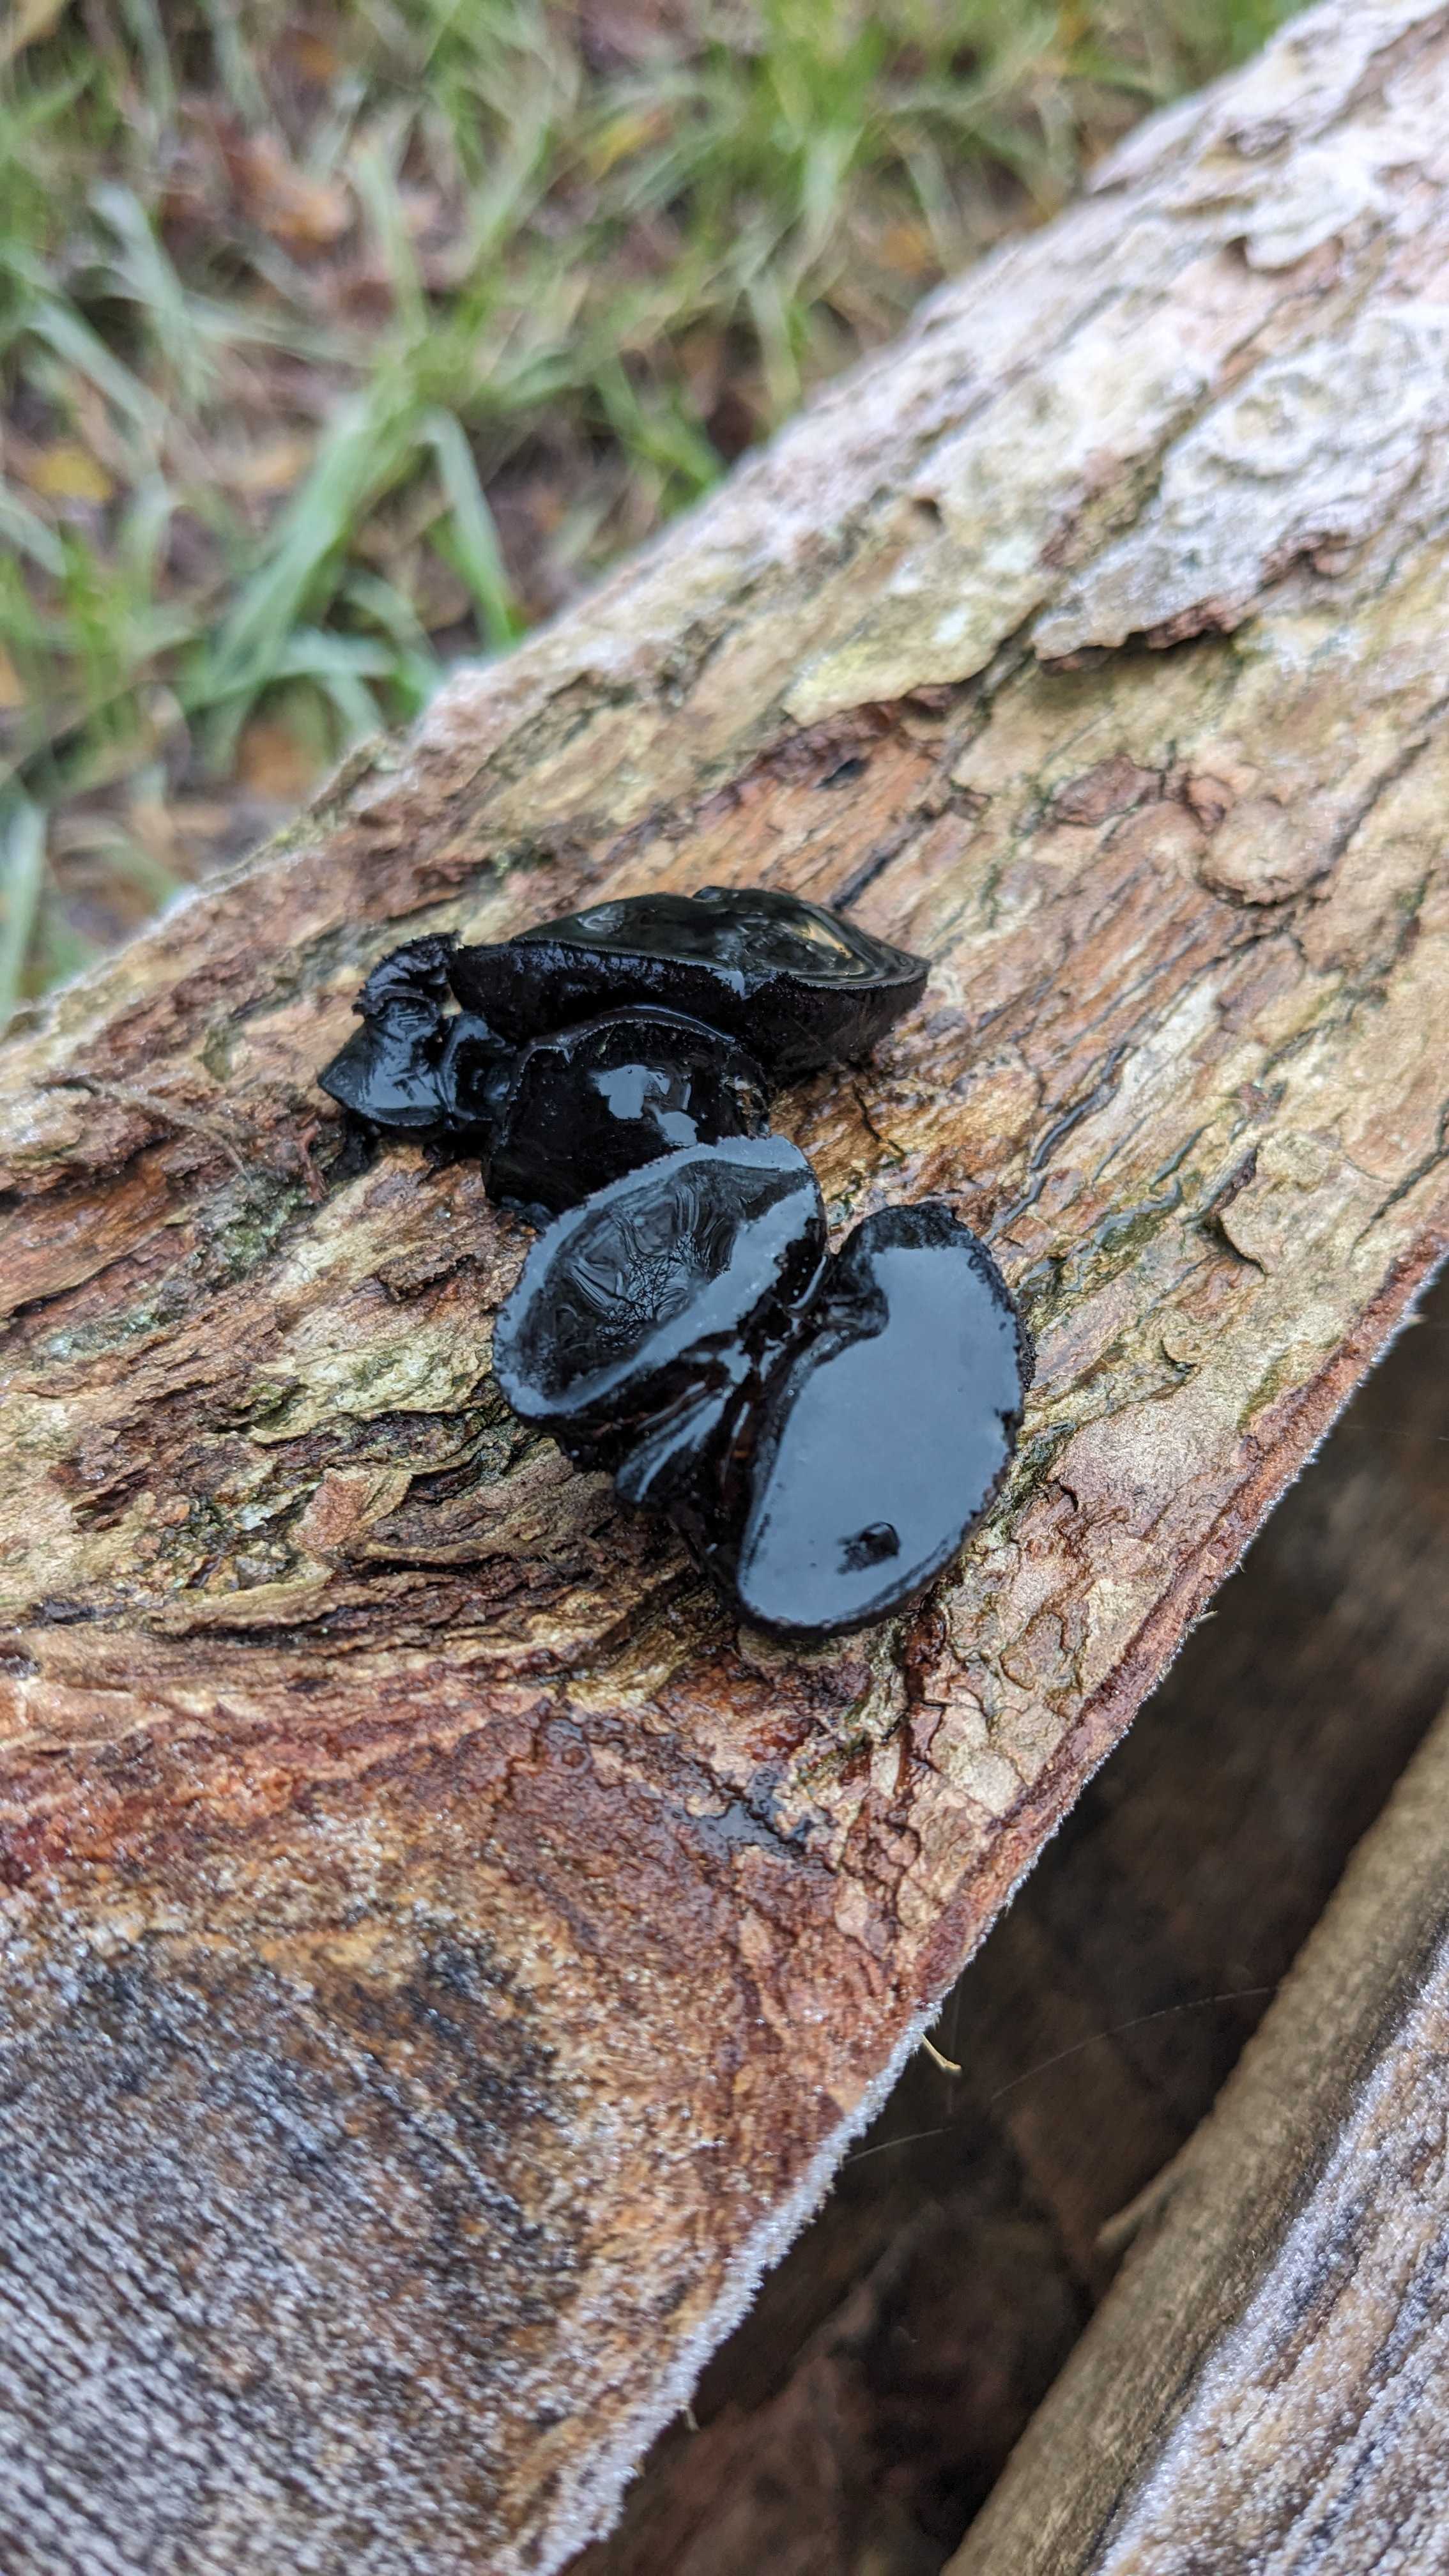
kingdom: Fungi
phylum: Ascomycota
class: Leotiomycetes
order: Phacidiales
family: Phacidiaceae
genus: Bulgaria
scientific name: Bulgaria inquinans
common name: afsmittende topsvamp
